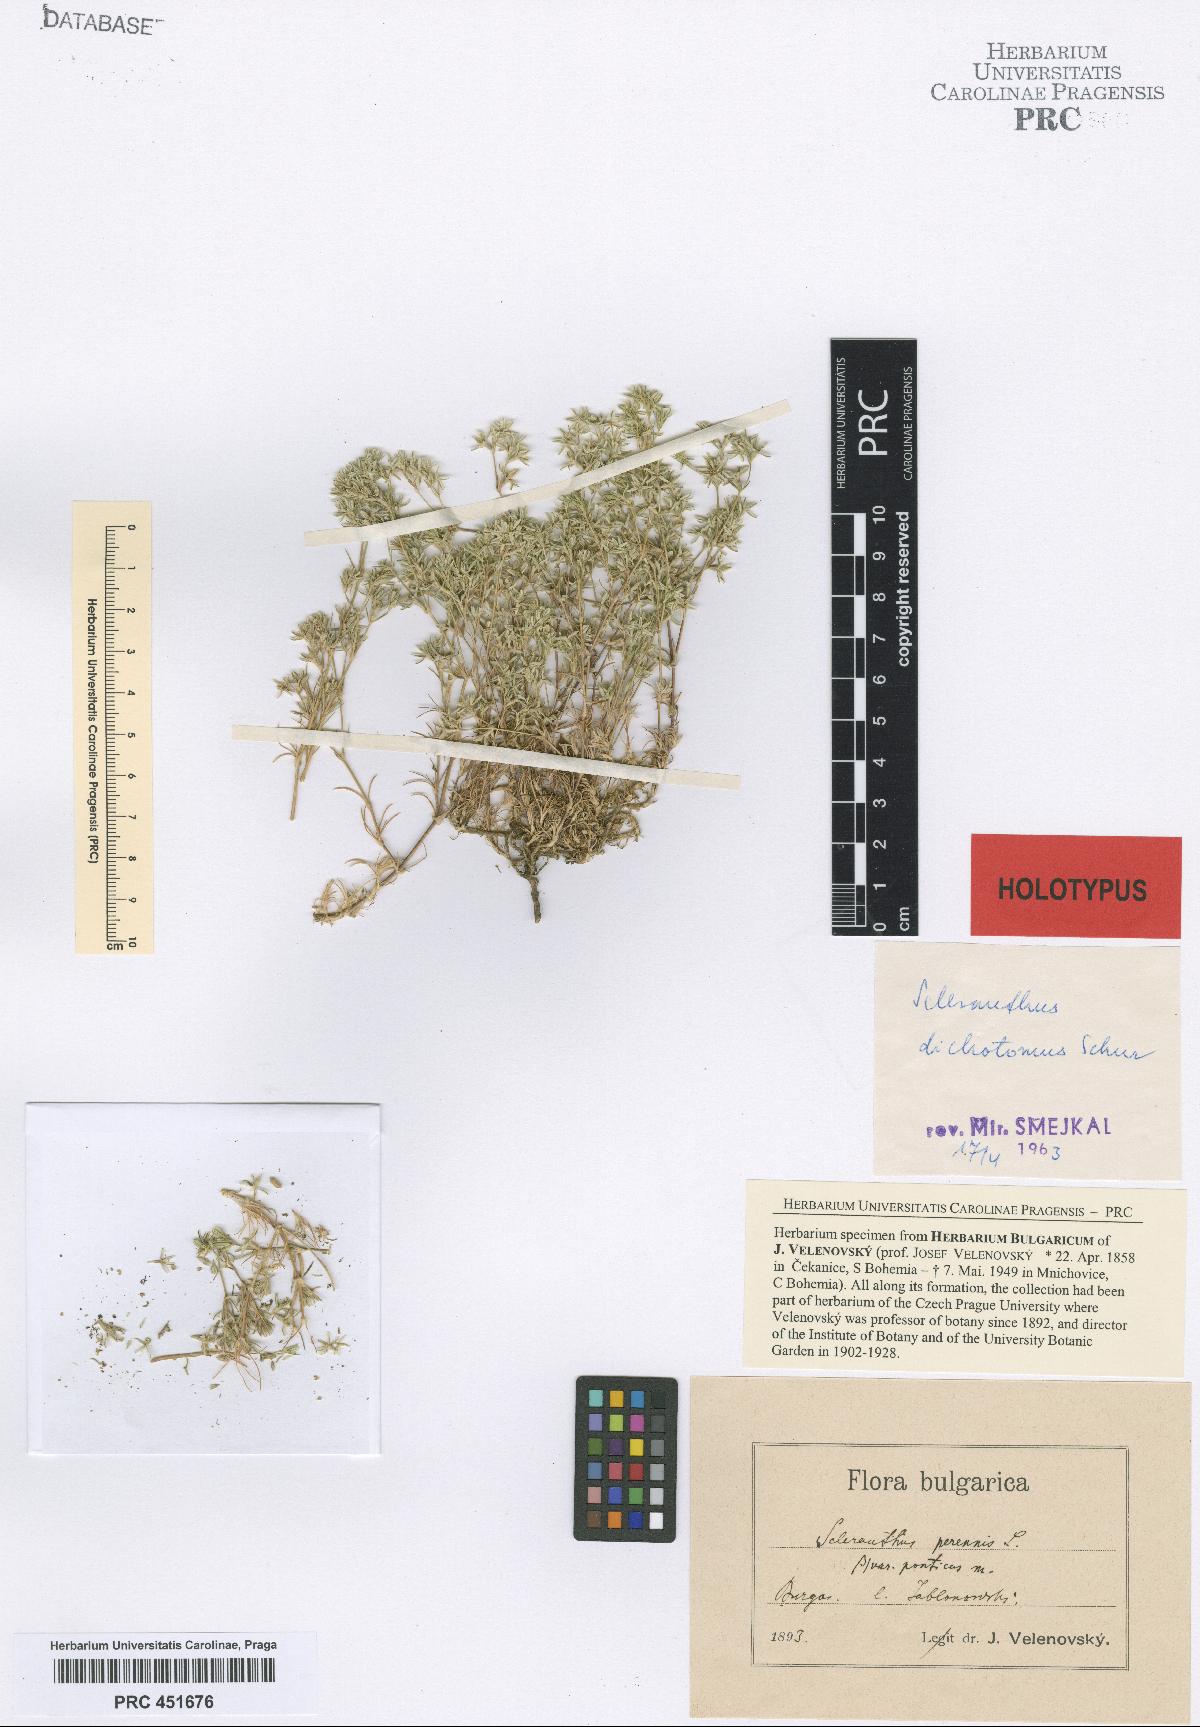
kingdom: Plantae
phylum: Tracheophyta
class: Magnoliopsida
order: Caryophyllales
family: Caryophyllaceae
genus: Scleranthus
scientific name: Scleranthus perennis
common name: Perennial knawel
